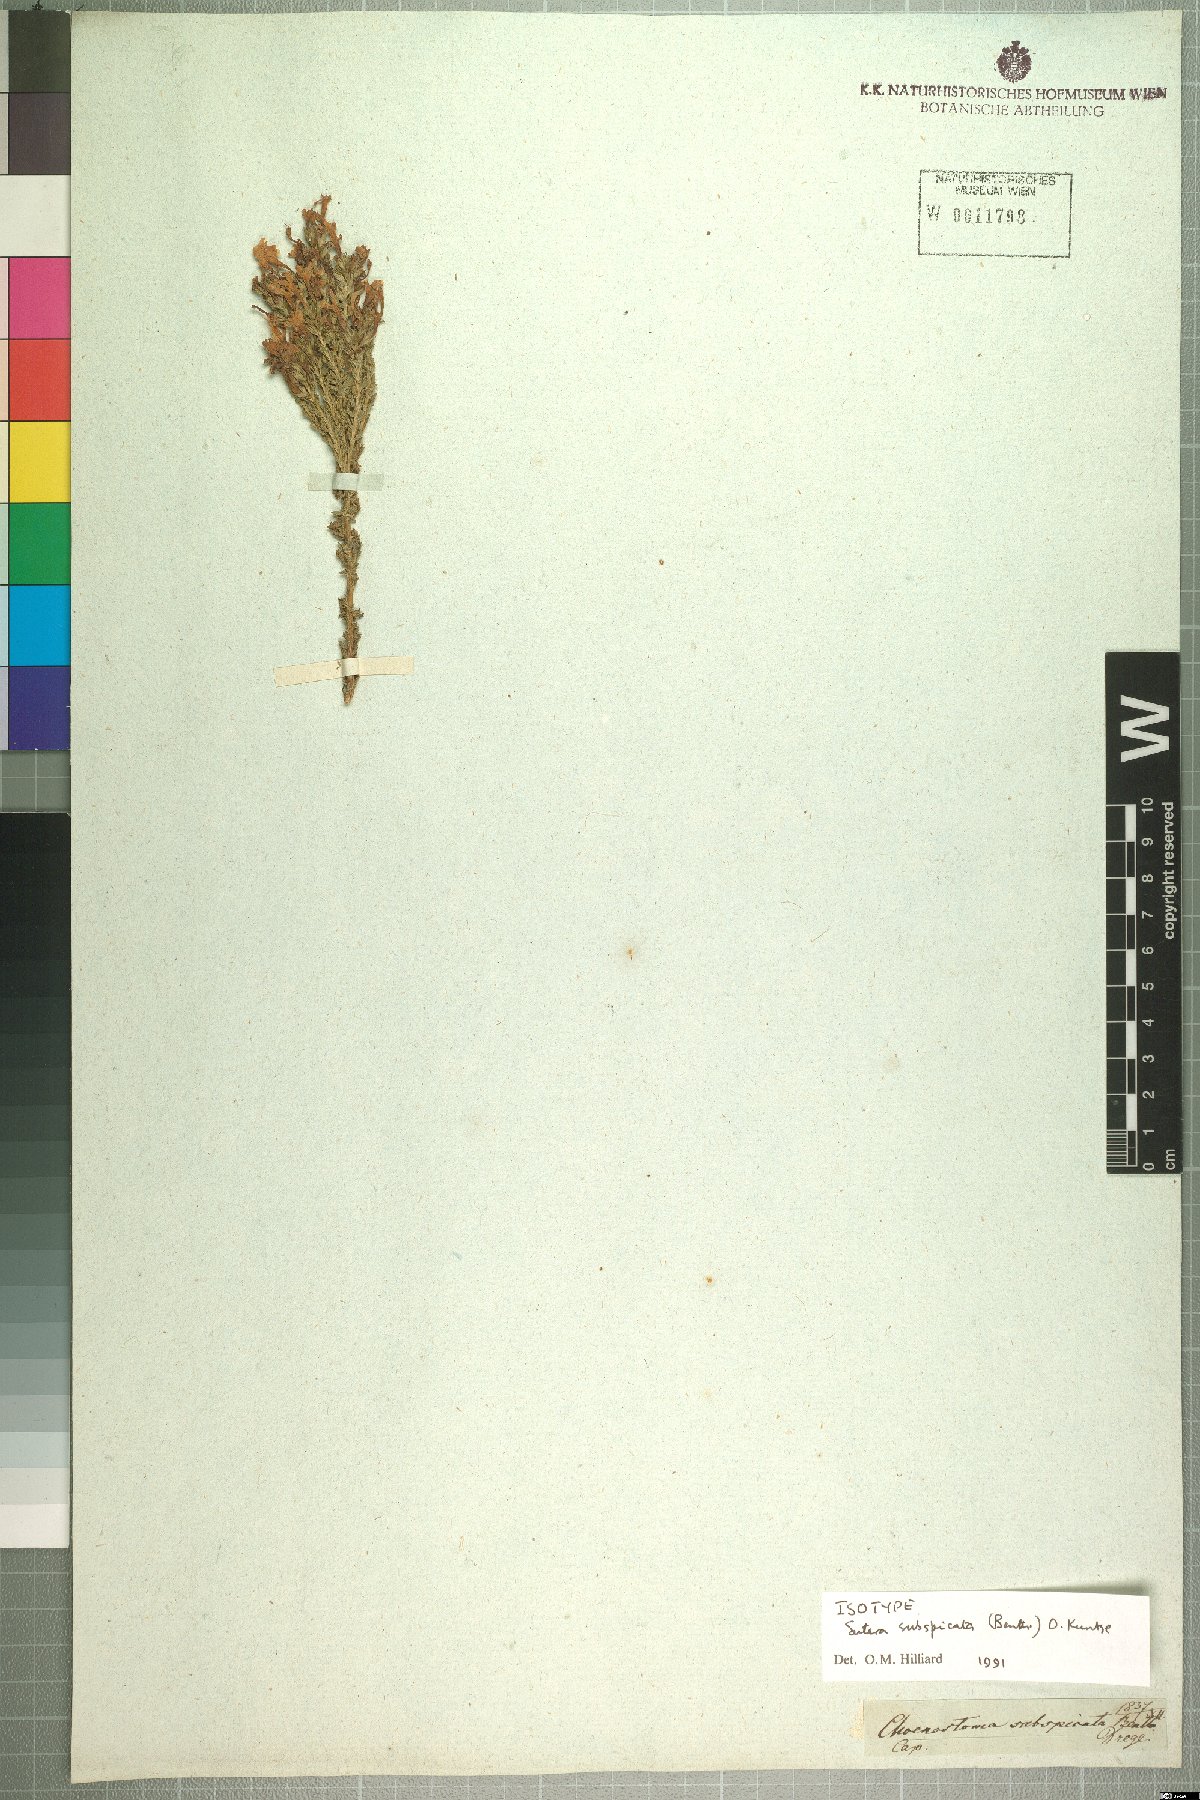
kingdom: Plantae
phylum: Tracheophyta
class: Magnoliopsida
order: Lamiales
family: Scrophulariaceae
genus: Chaenostoma
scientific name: Chaenostoma subspicata
